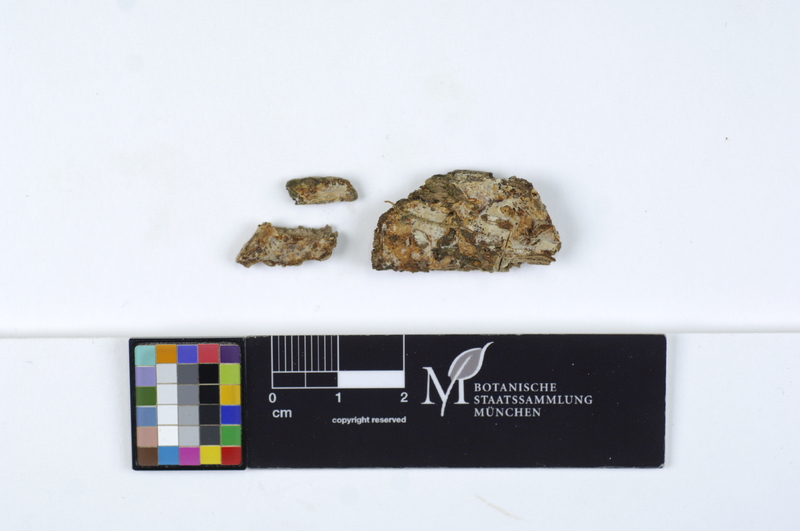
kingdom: Fungi
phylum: Basidiomycota
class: Agaricomycetes
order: Russulales
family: Peniophoraceae
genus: Gloiothele
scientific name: Gloiothele lactescens
